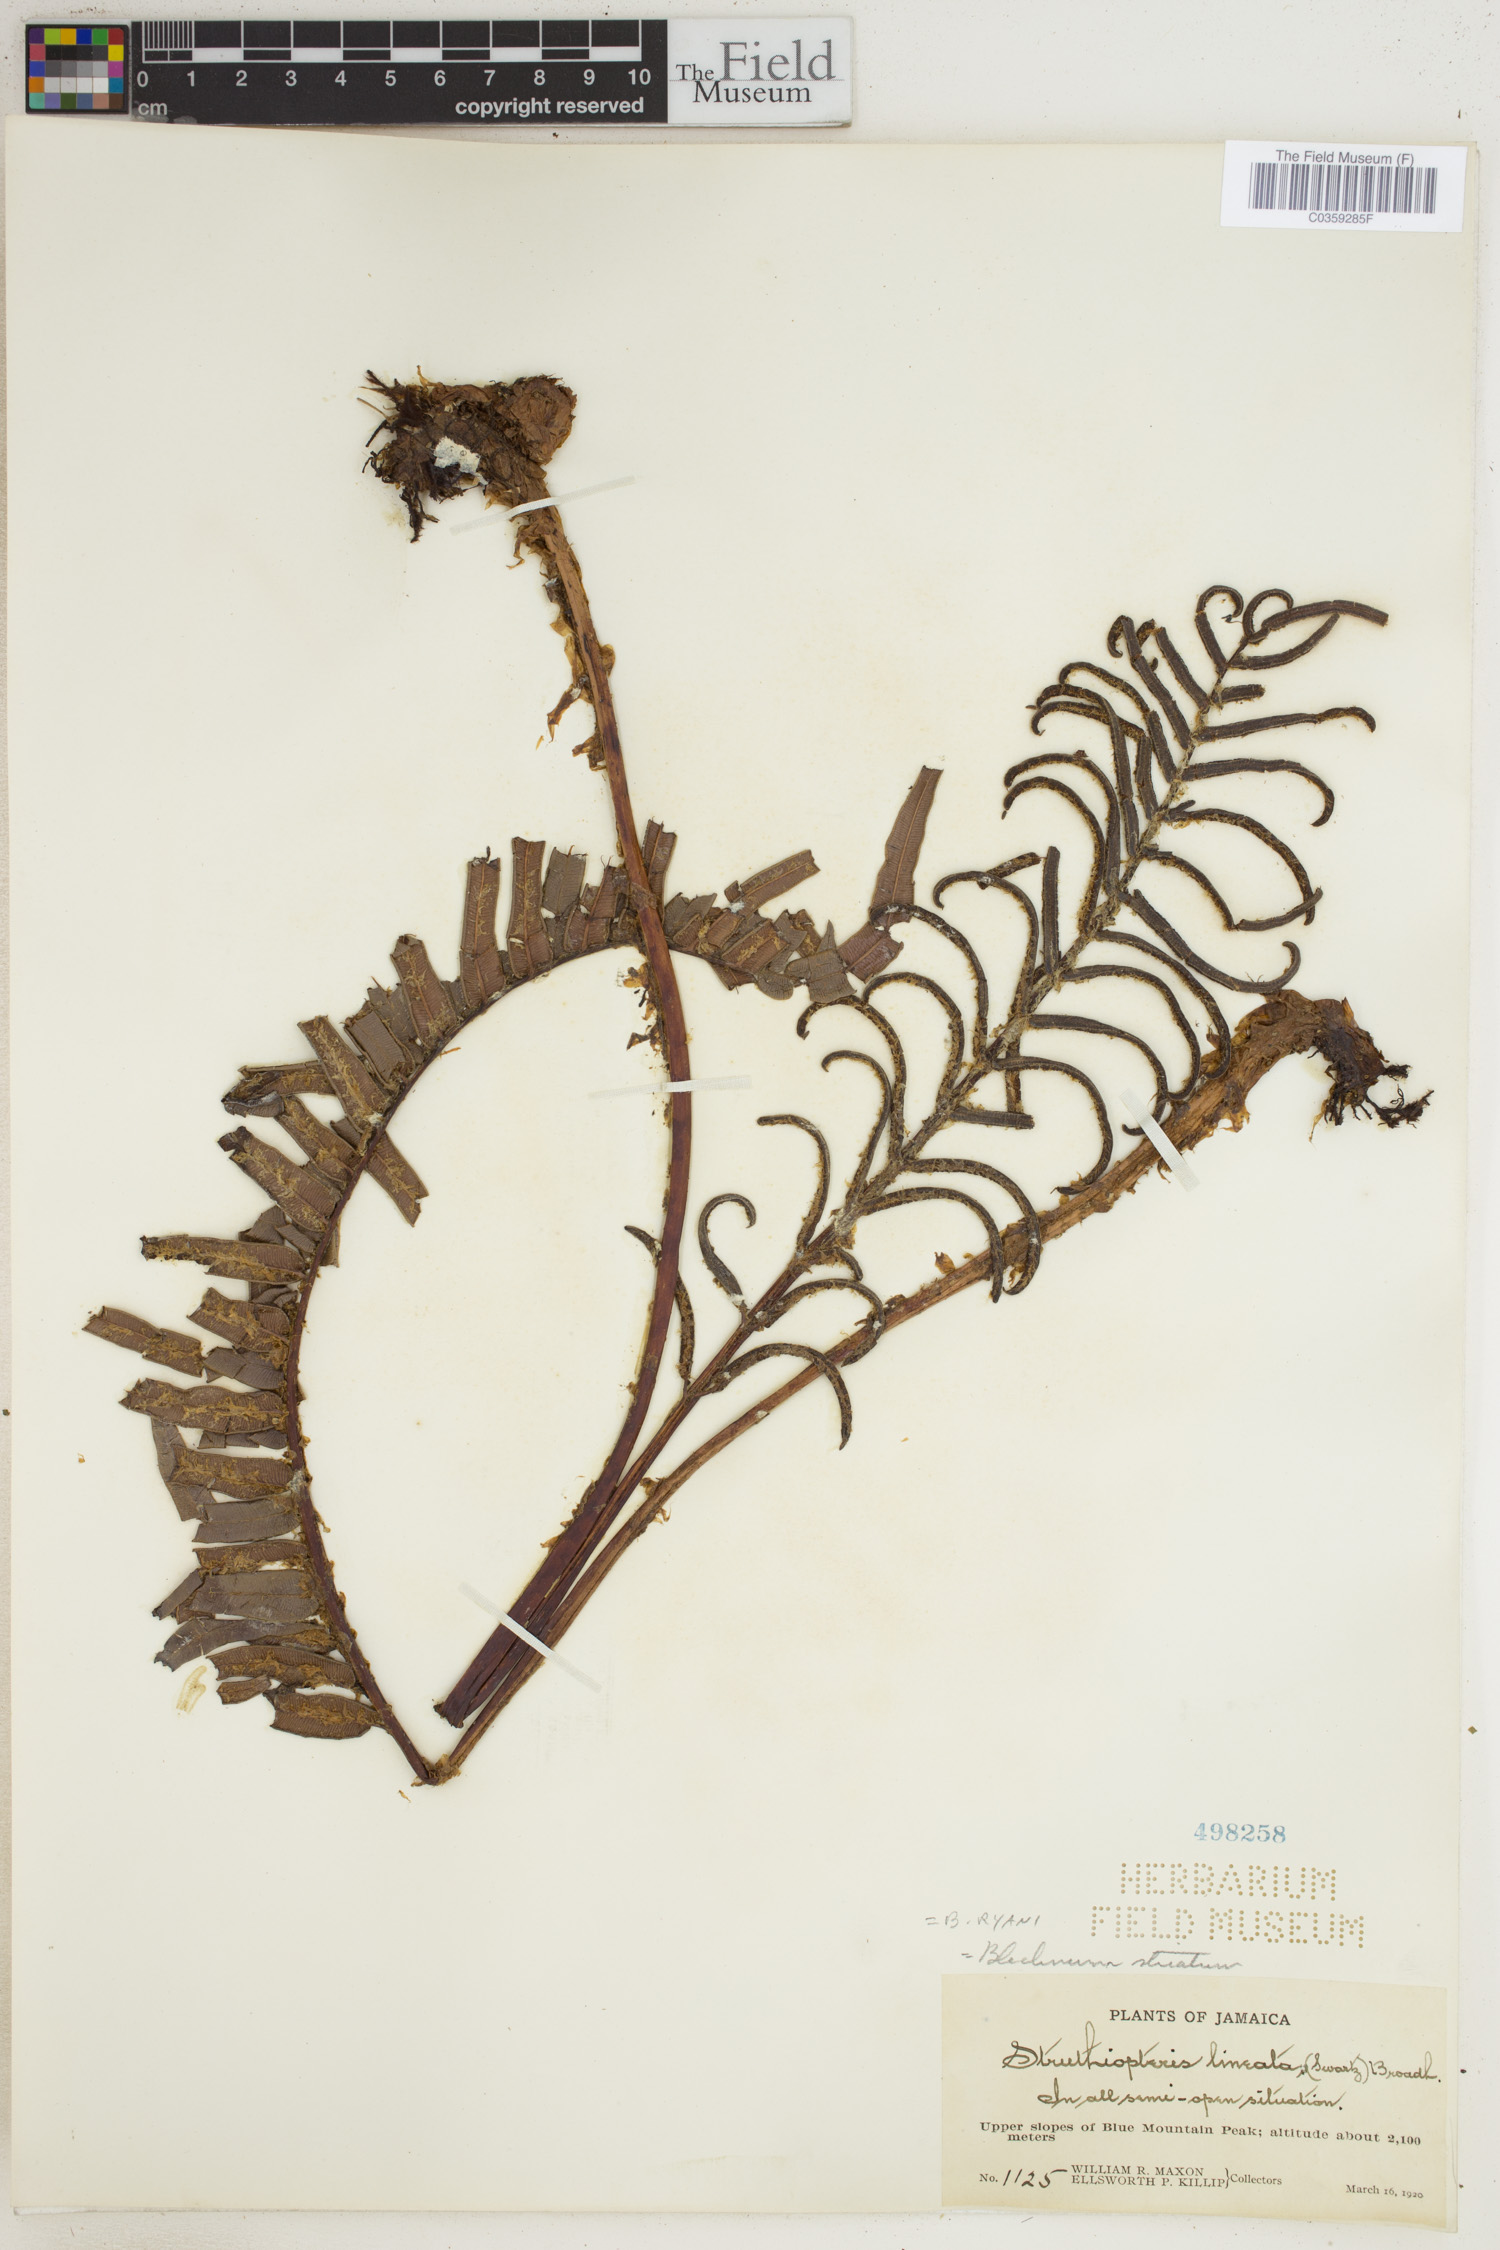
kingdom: Plantae
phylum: Tracheophyta
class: Polypodiopsida
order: Polypodiales
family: Blechnaceae
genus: Parablechnum
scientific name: Parablechnum ryanii
